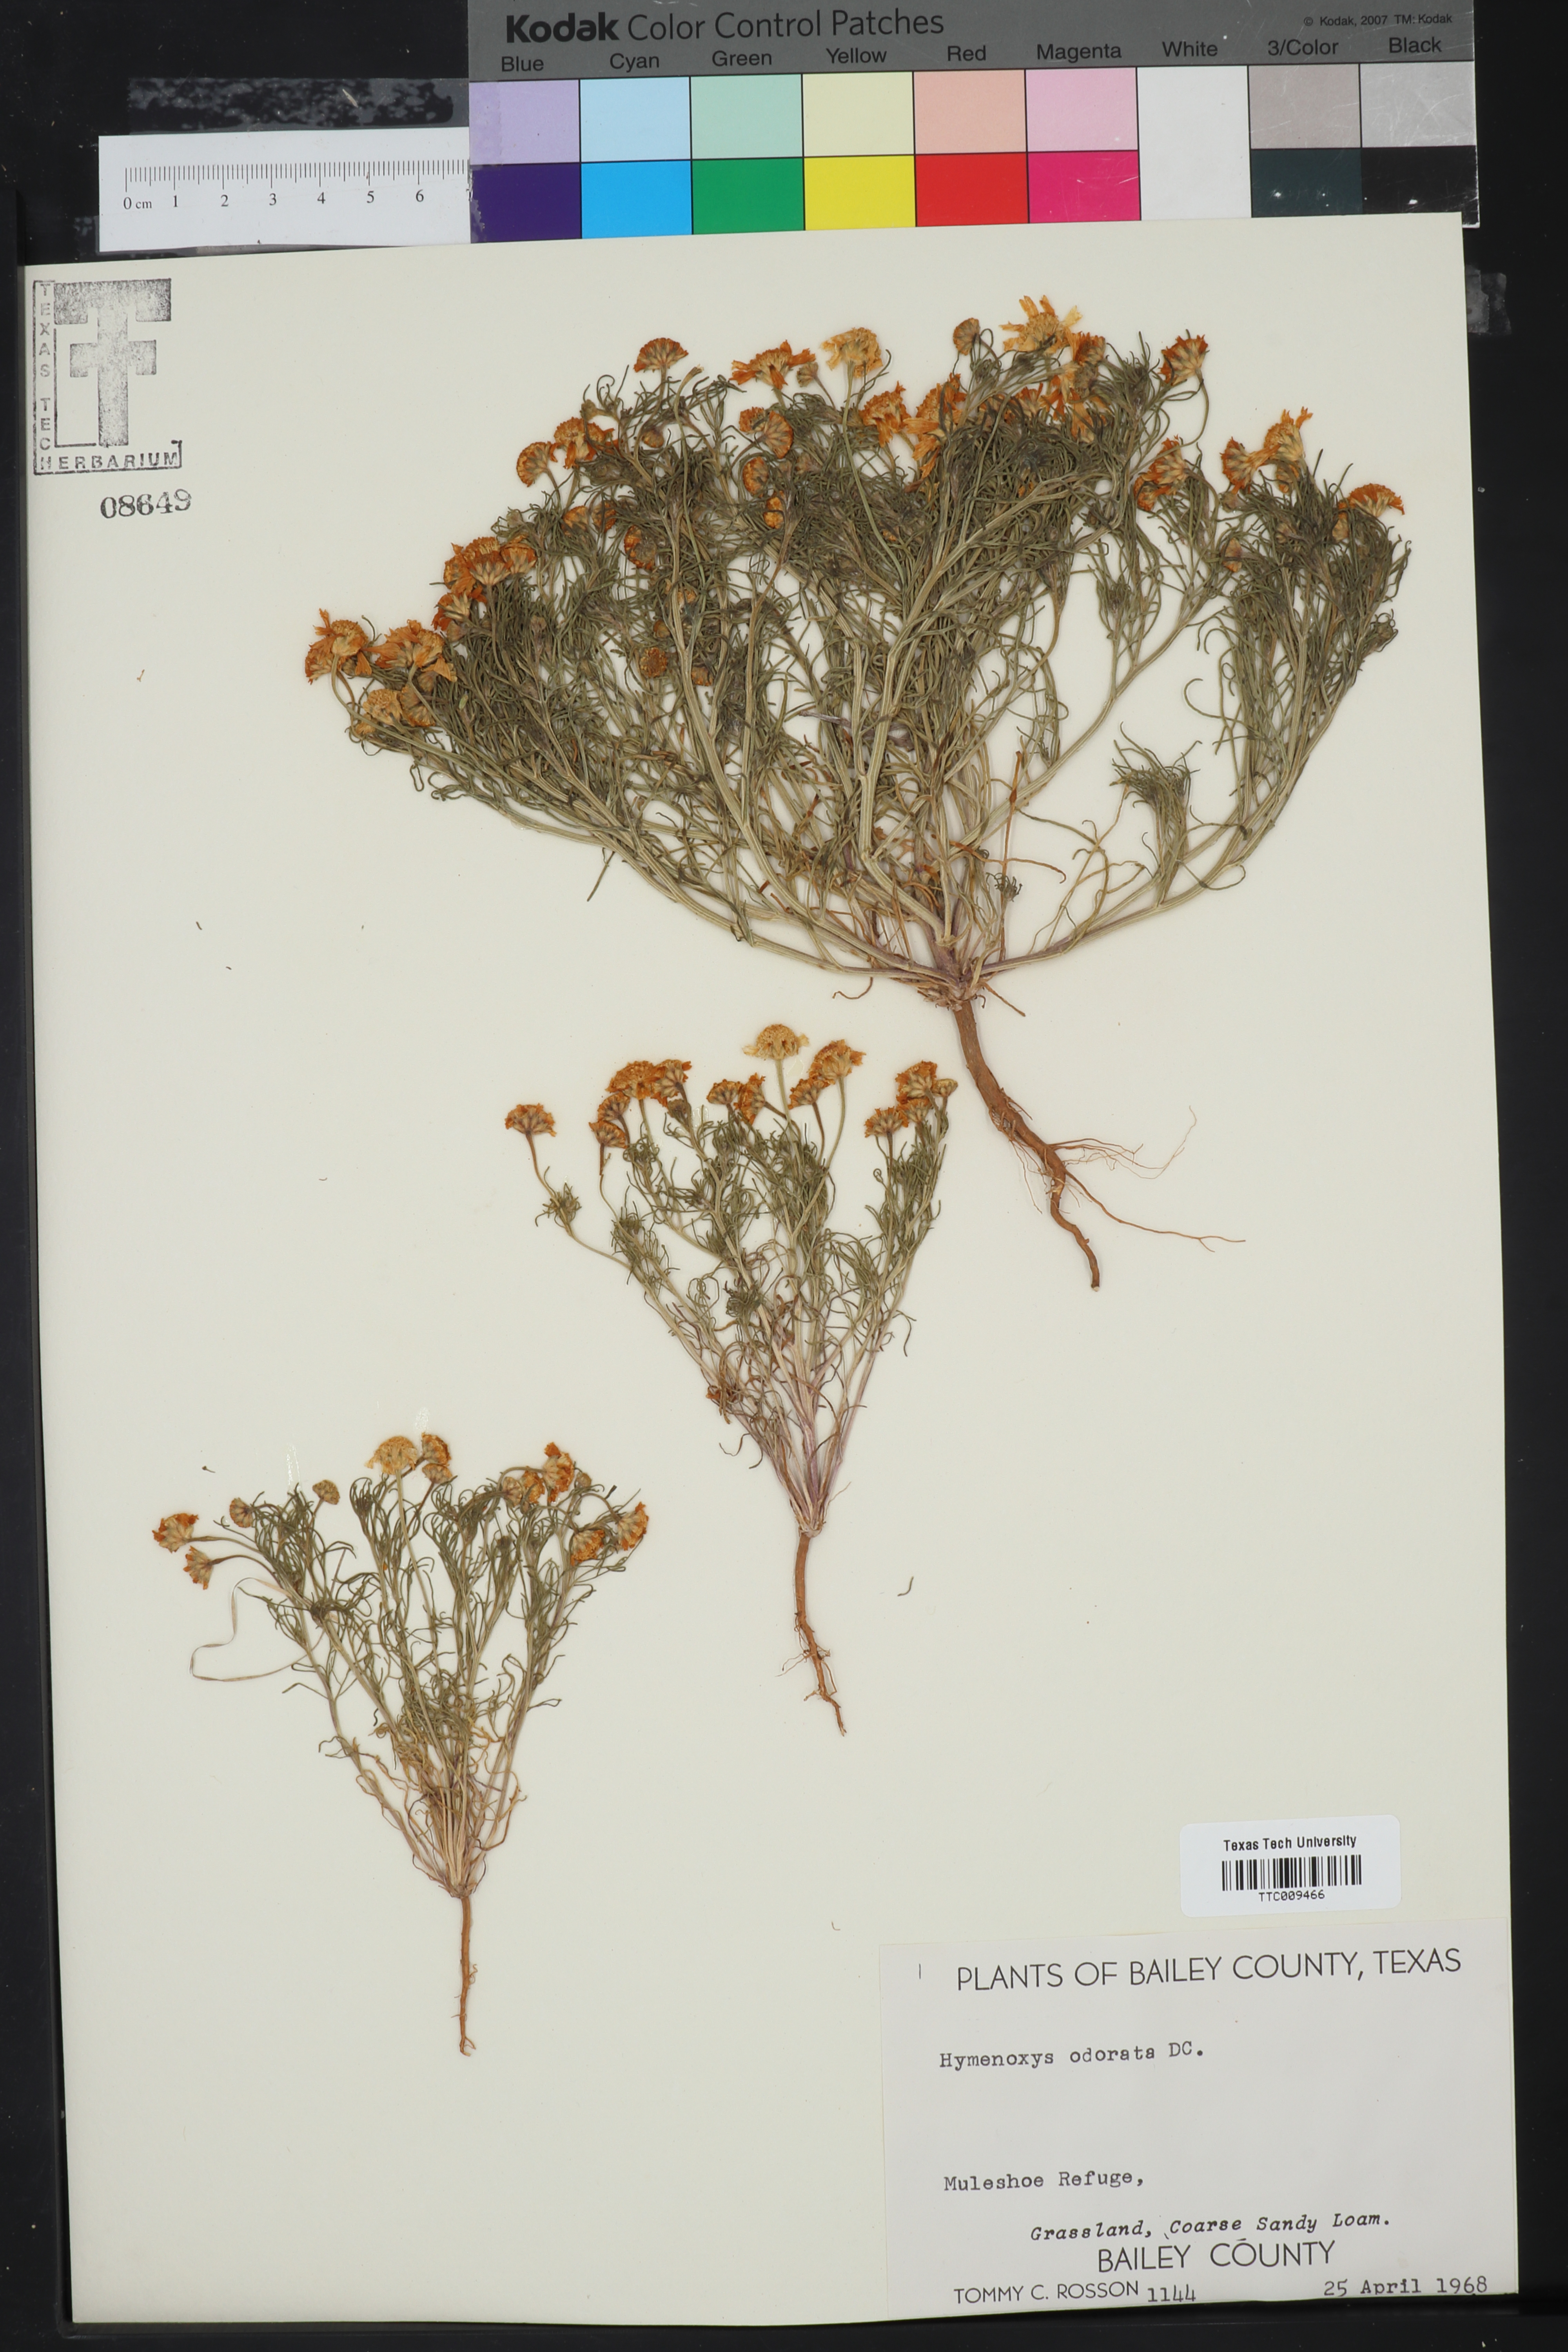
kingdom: Plantae
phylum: Tracheophyta
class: Magnoliopsida
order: Asterales
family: Asteraceae
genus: Hymenoxys
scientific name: Hymenoxys odorata
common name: Bitter rubberweed
